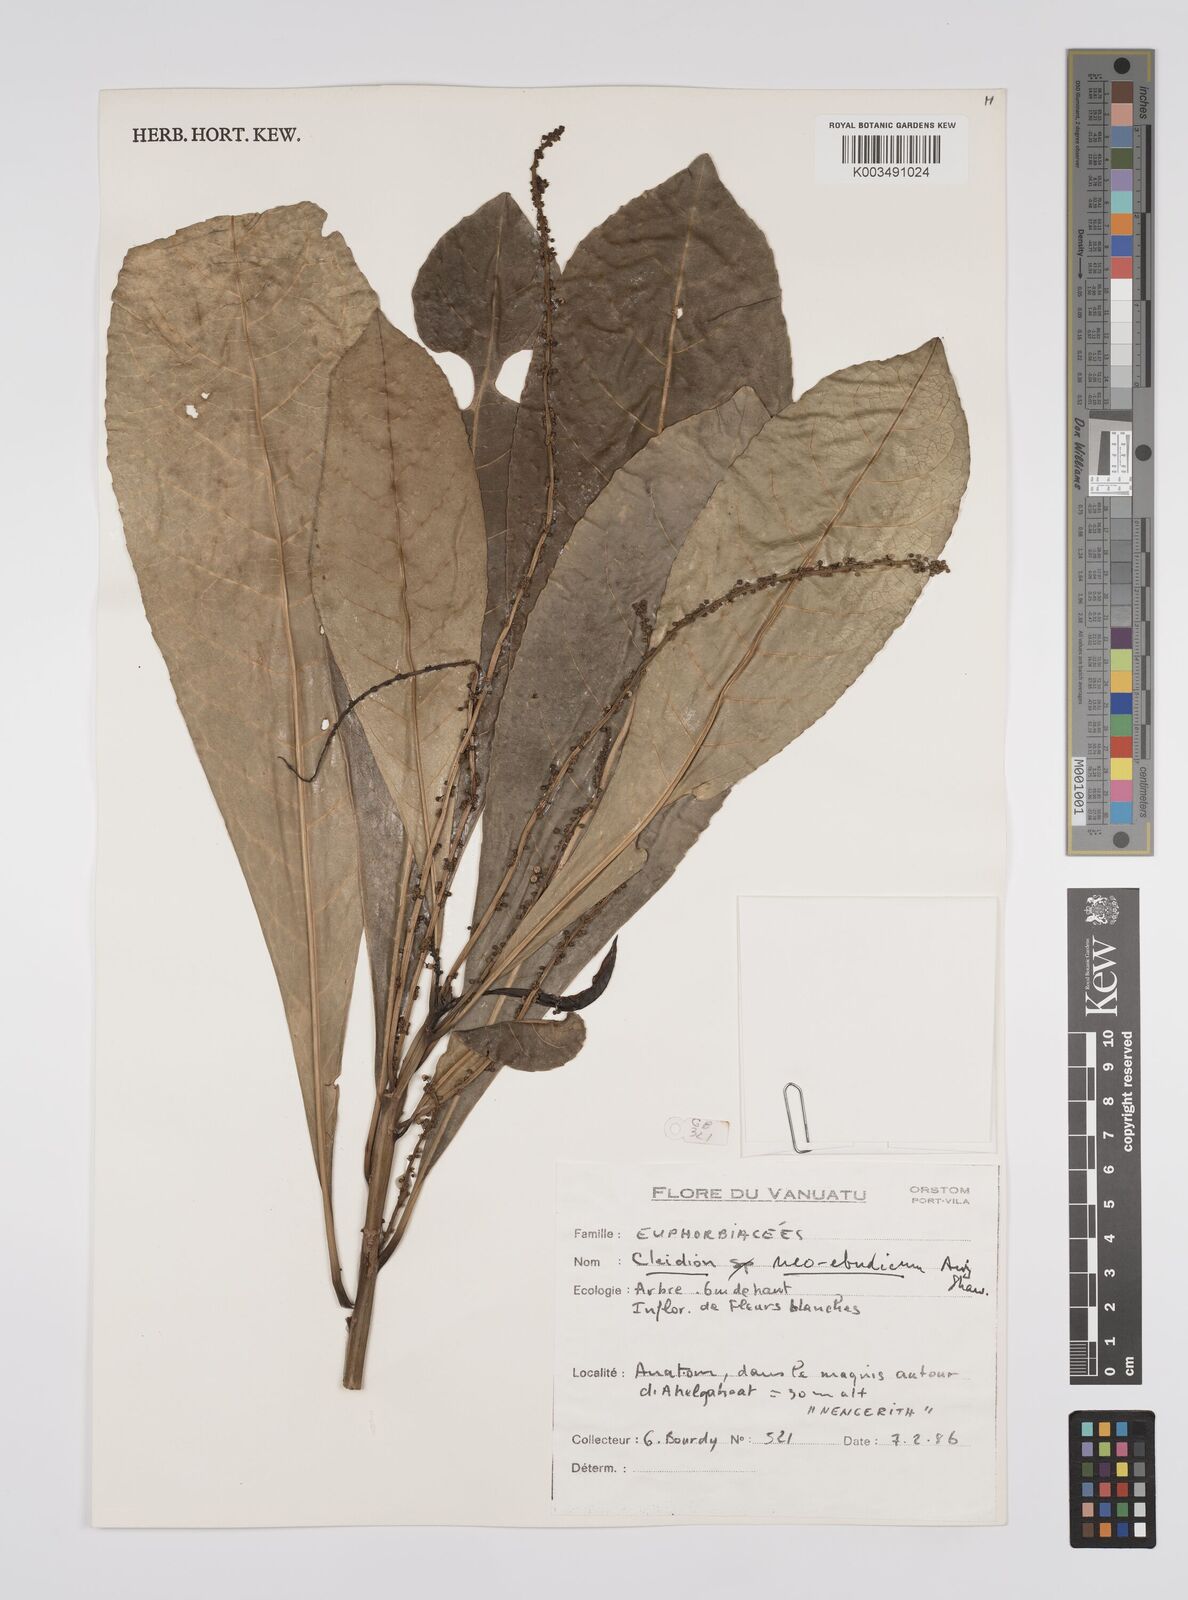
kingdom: Plantae
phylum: Tracheophyta
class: Magnoliopsida
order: Malpighiales
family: Euphorbiaceae
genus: Cleidion
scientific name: Cleidion neoebudicum
